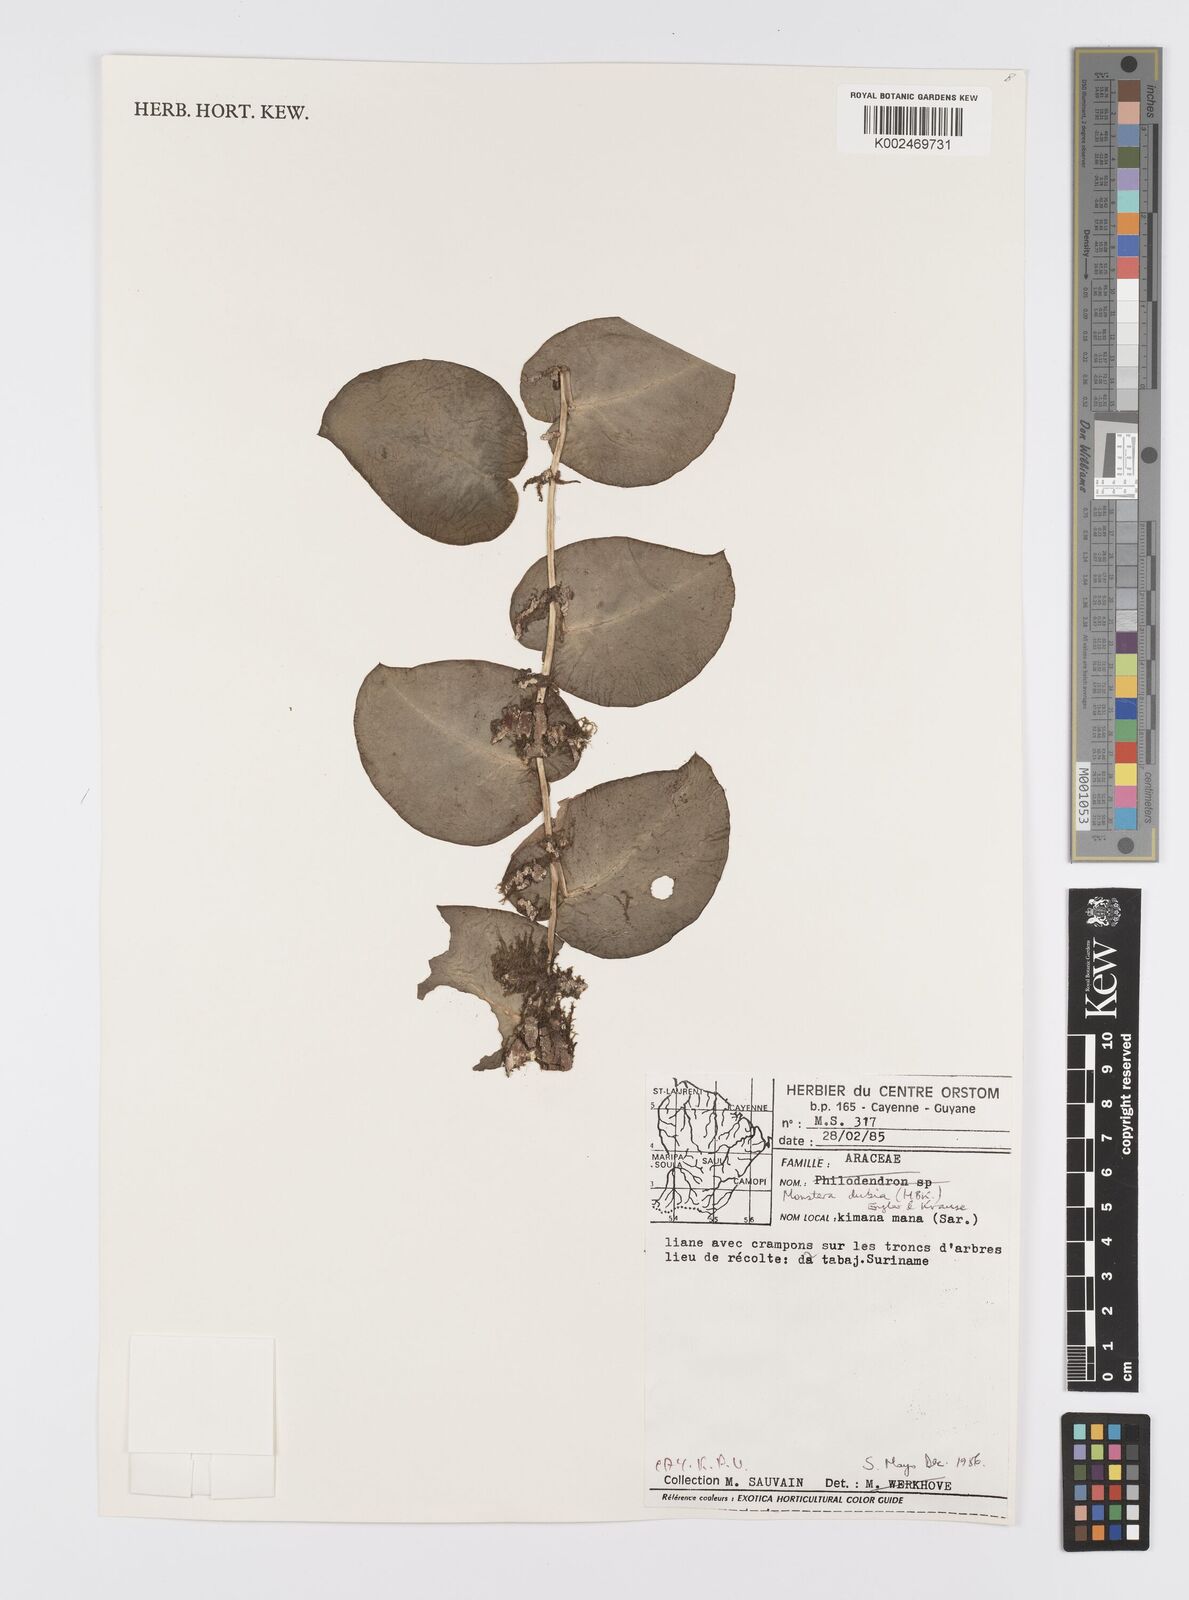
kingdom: Plantae
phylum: Tracheophyta
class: Liliopsida
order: Alismatales
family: Araceae
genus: Monstera
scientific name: Monstera dubia
